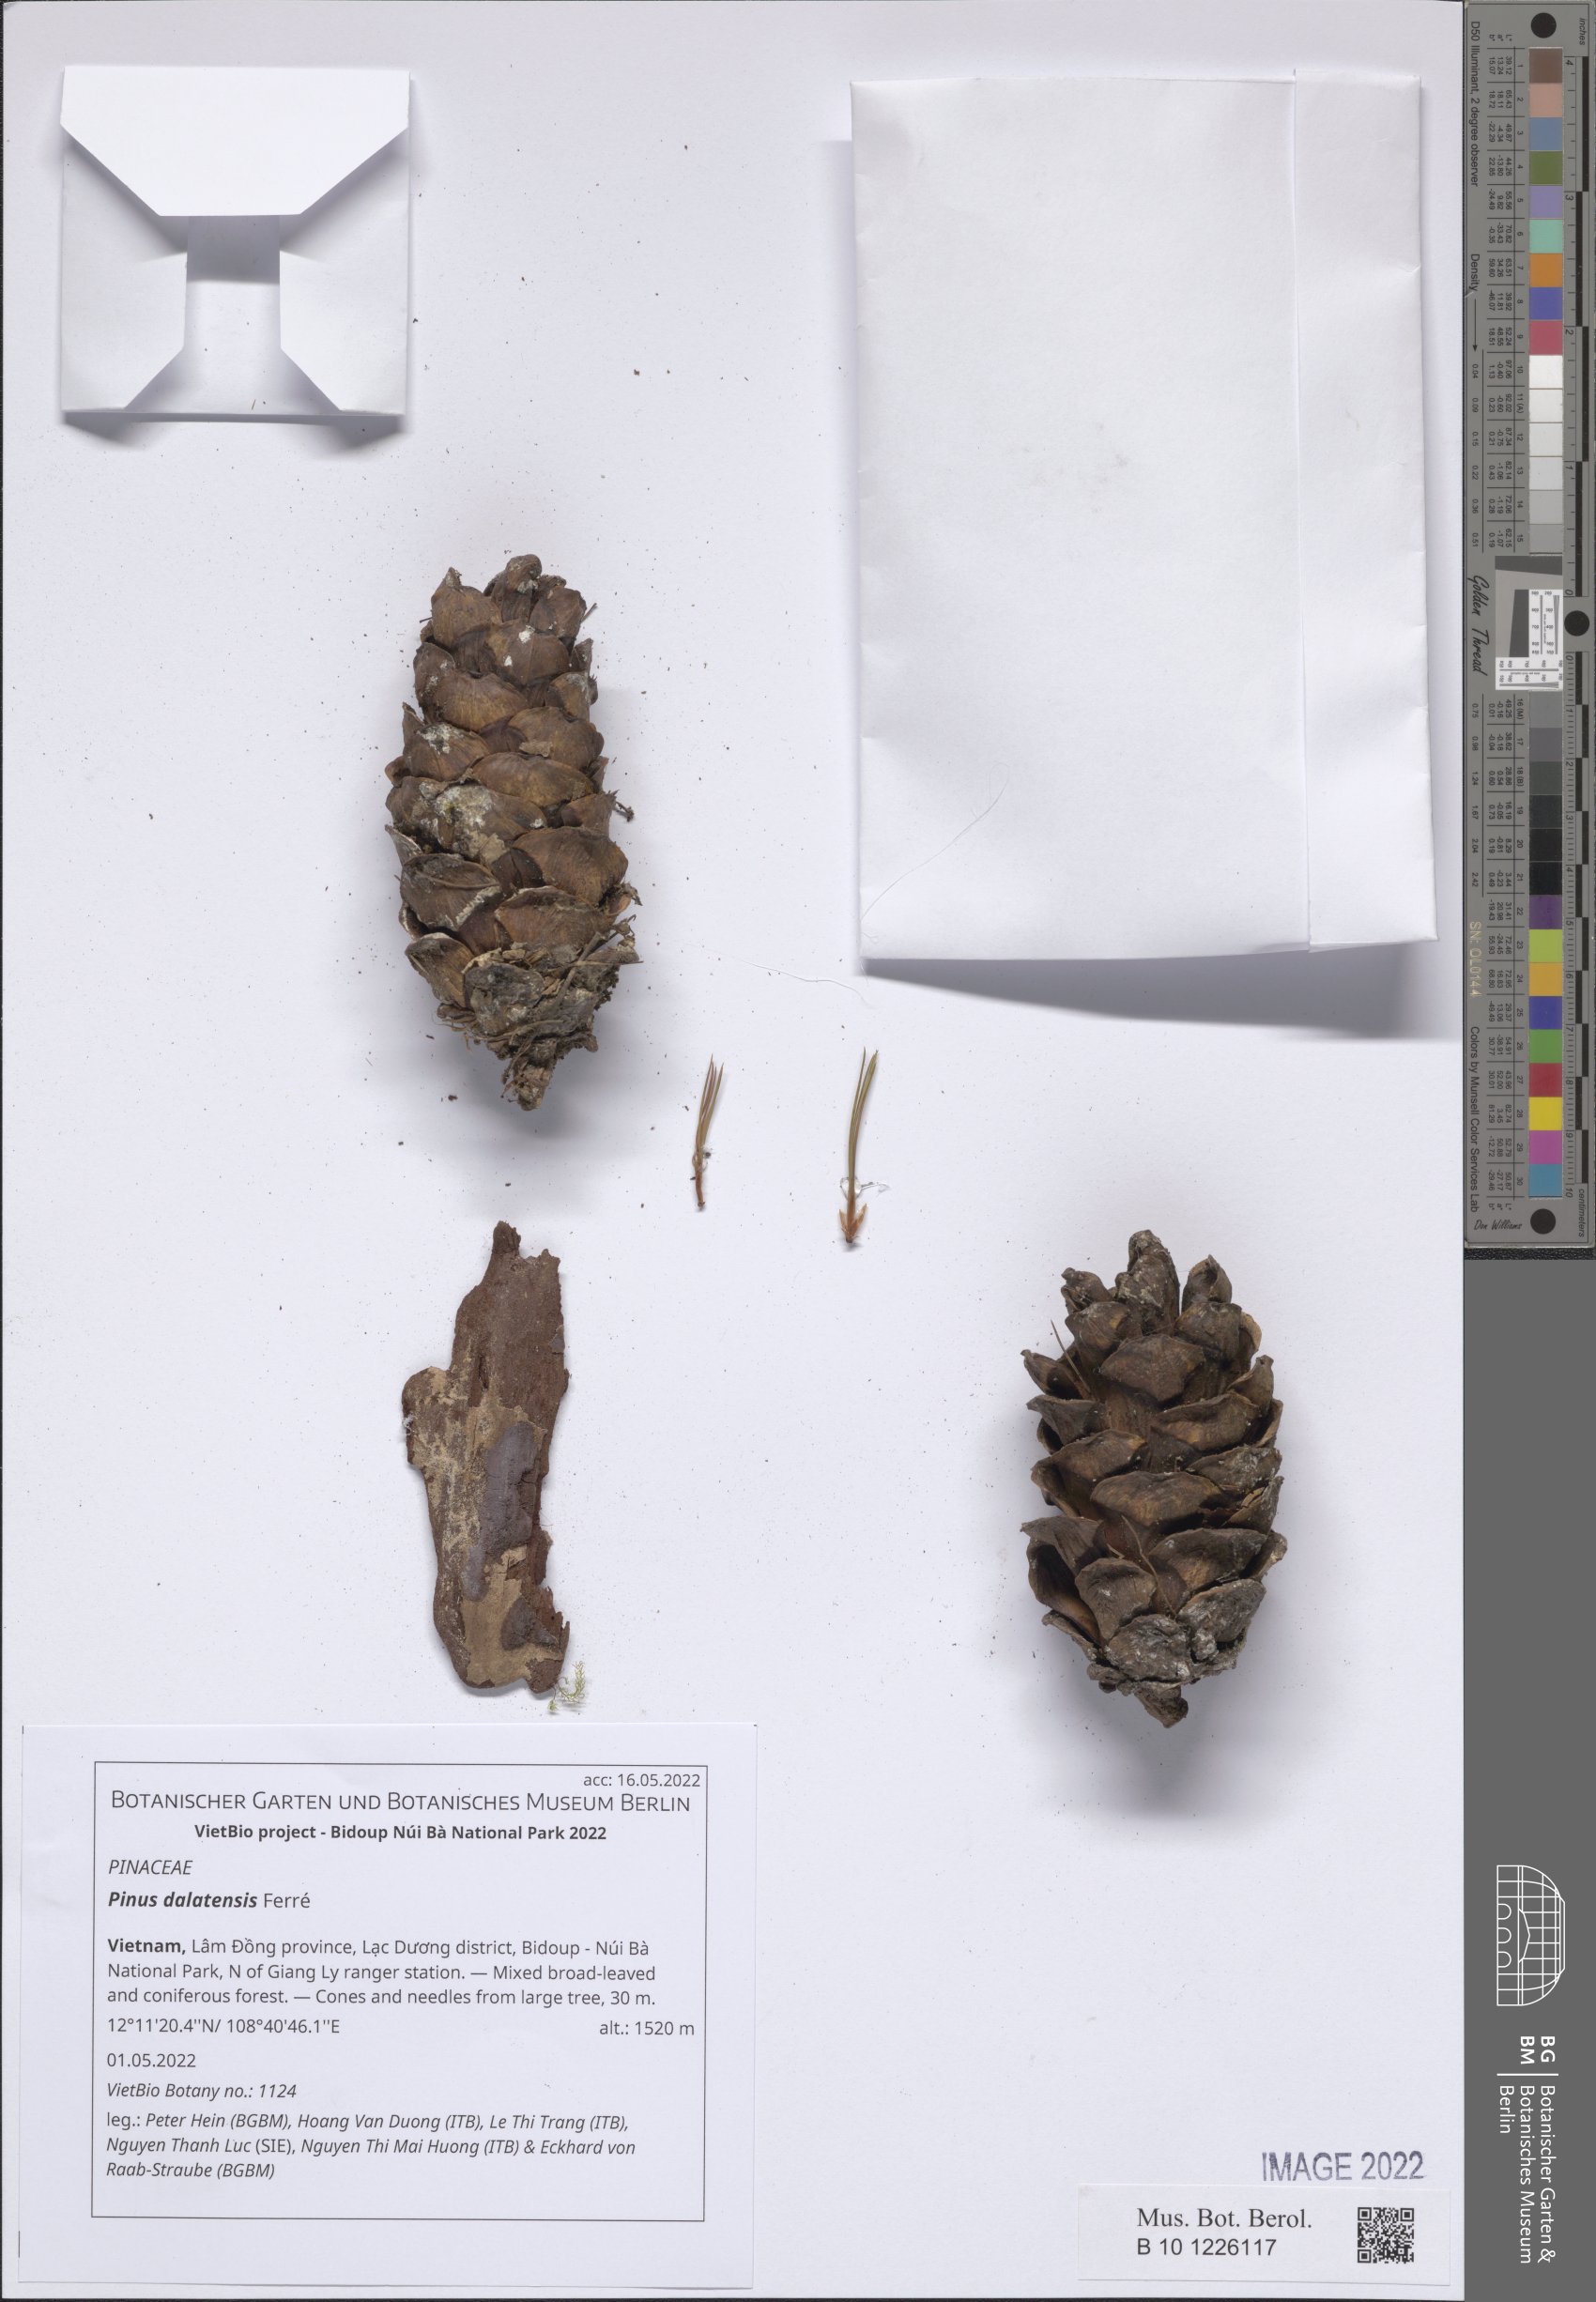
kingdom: Plantae
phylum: Tracheophyta
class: Pinopsida
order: Pinales
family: Pinaceae
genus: Pinus
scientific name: Pinus dalatensis
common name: Dalat pine
